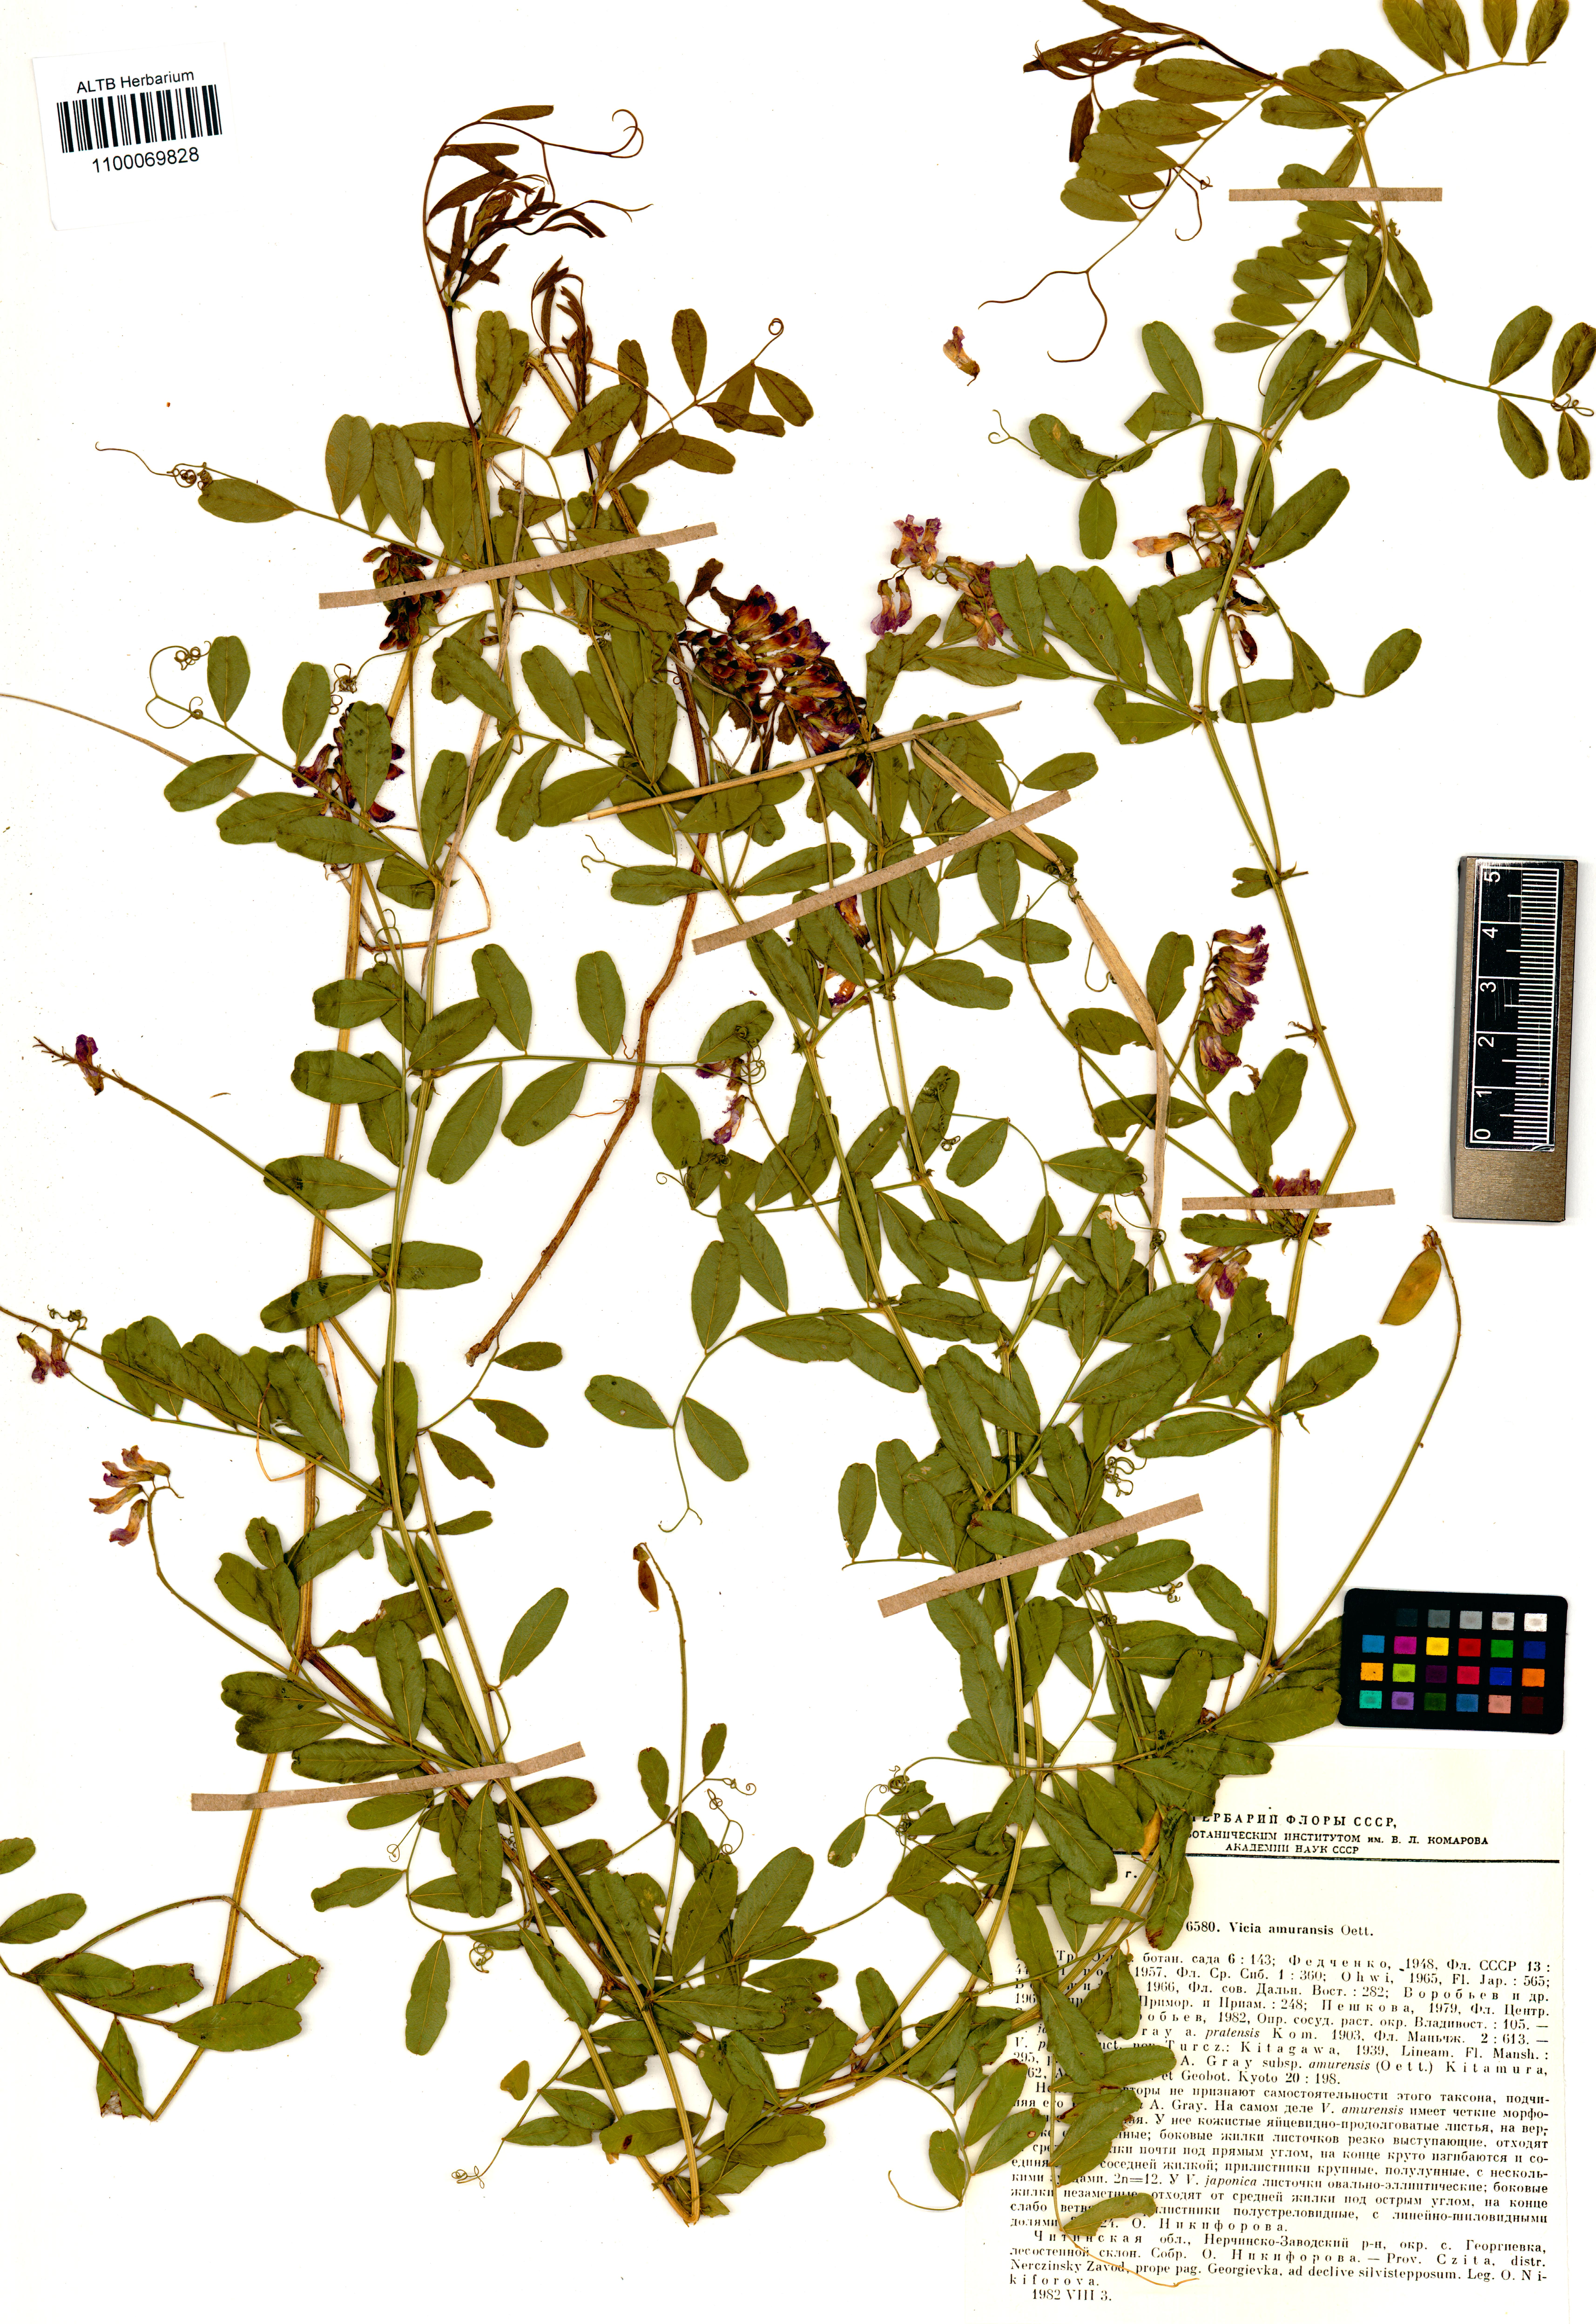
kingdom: Plantae
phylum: Tracheophyta
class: Magnoliopsida
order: Fabales
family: Fabaceae
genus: Vicia
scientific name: Vicia amurensis
